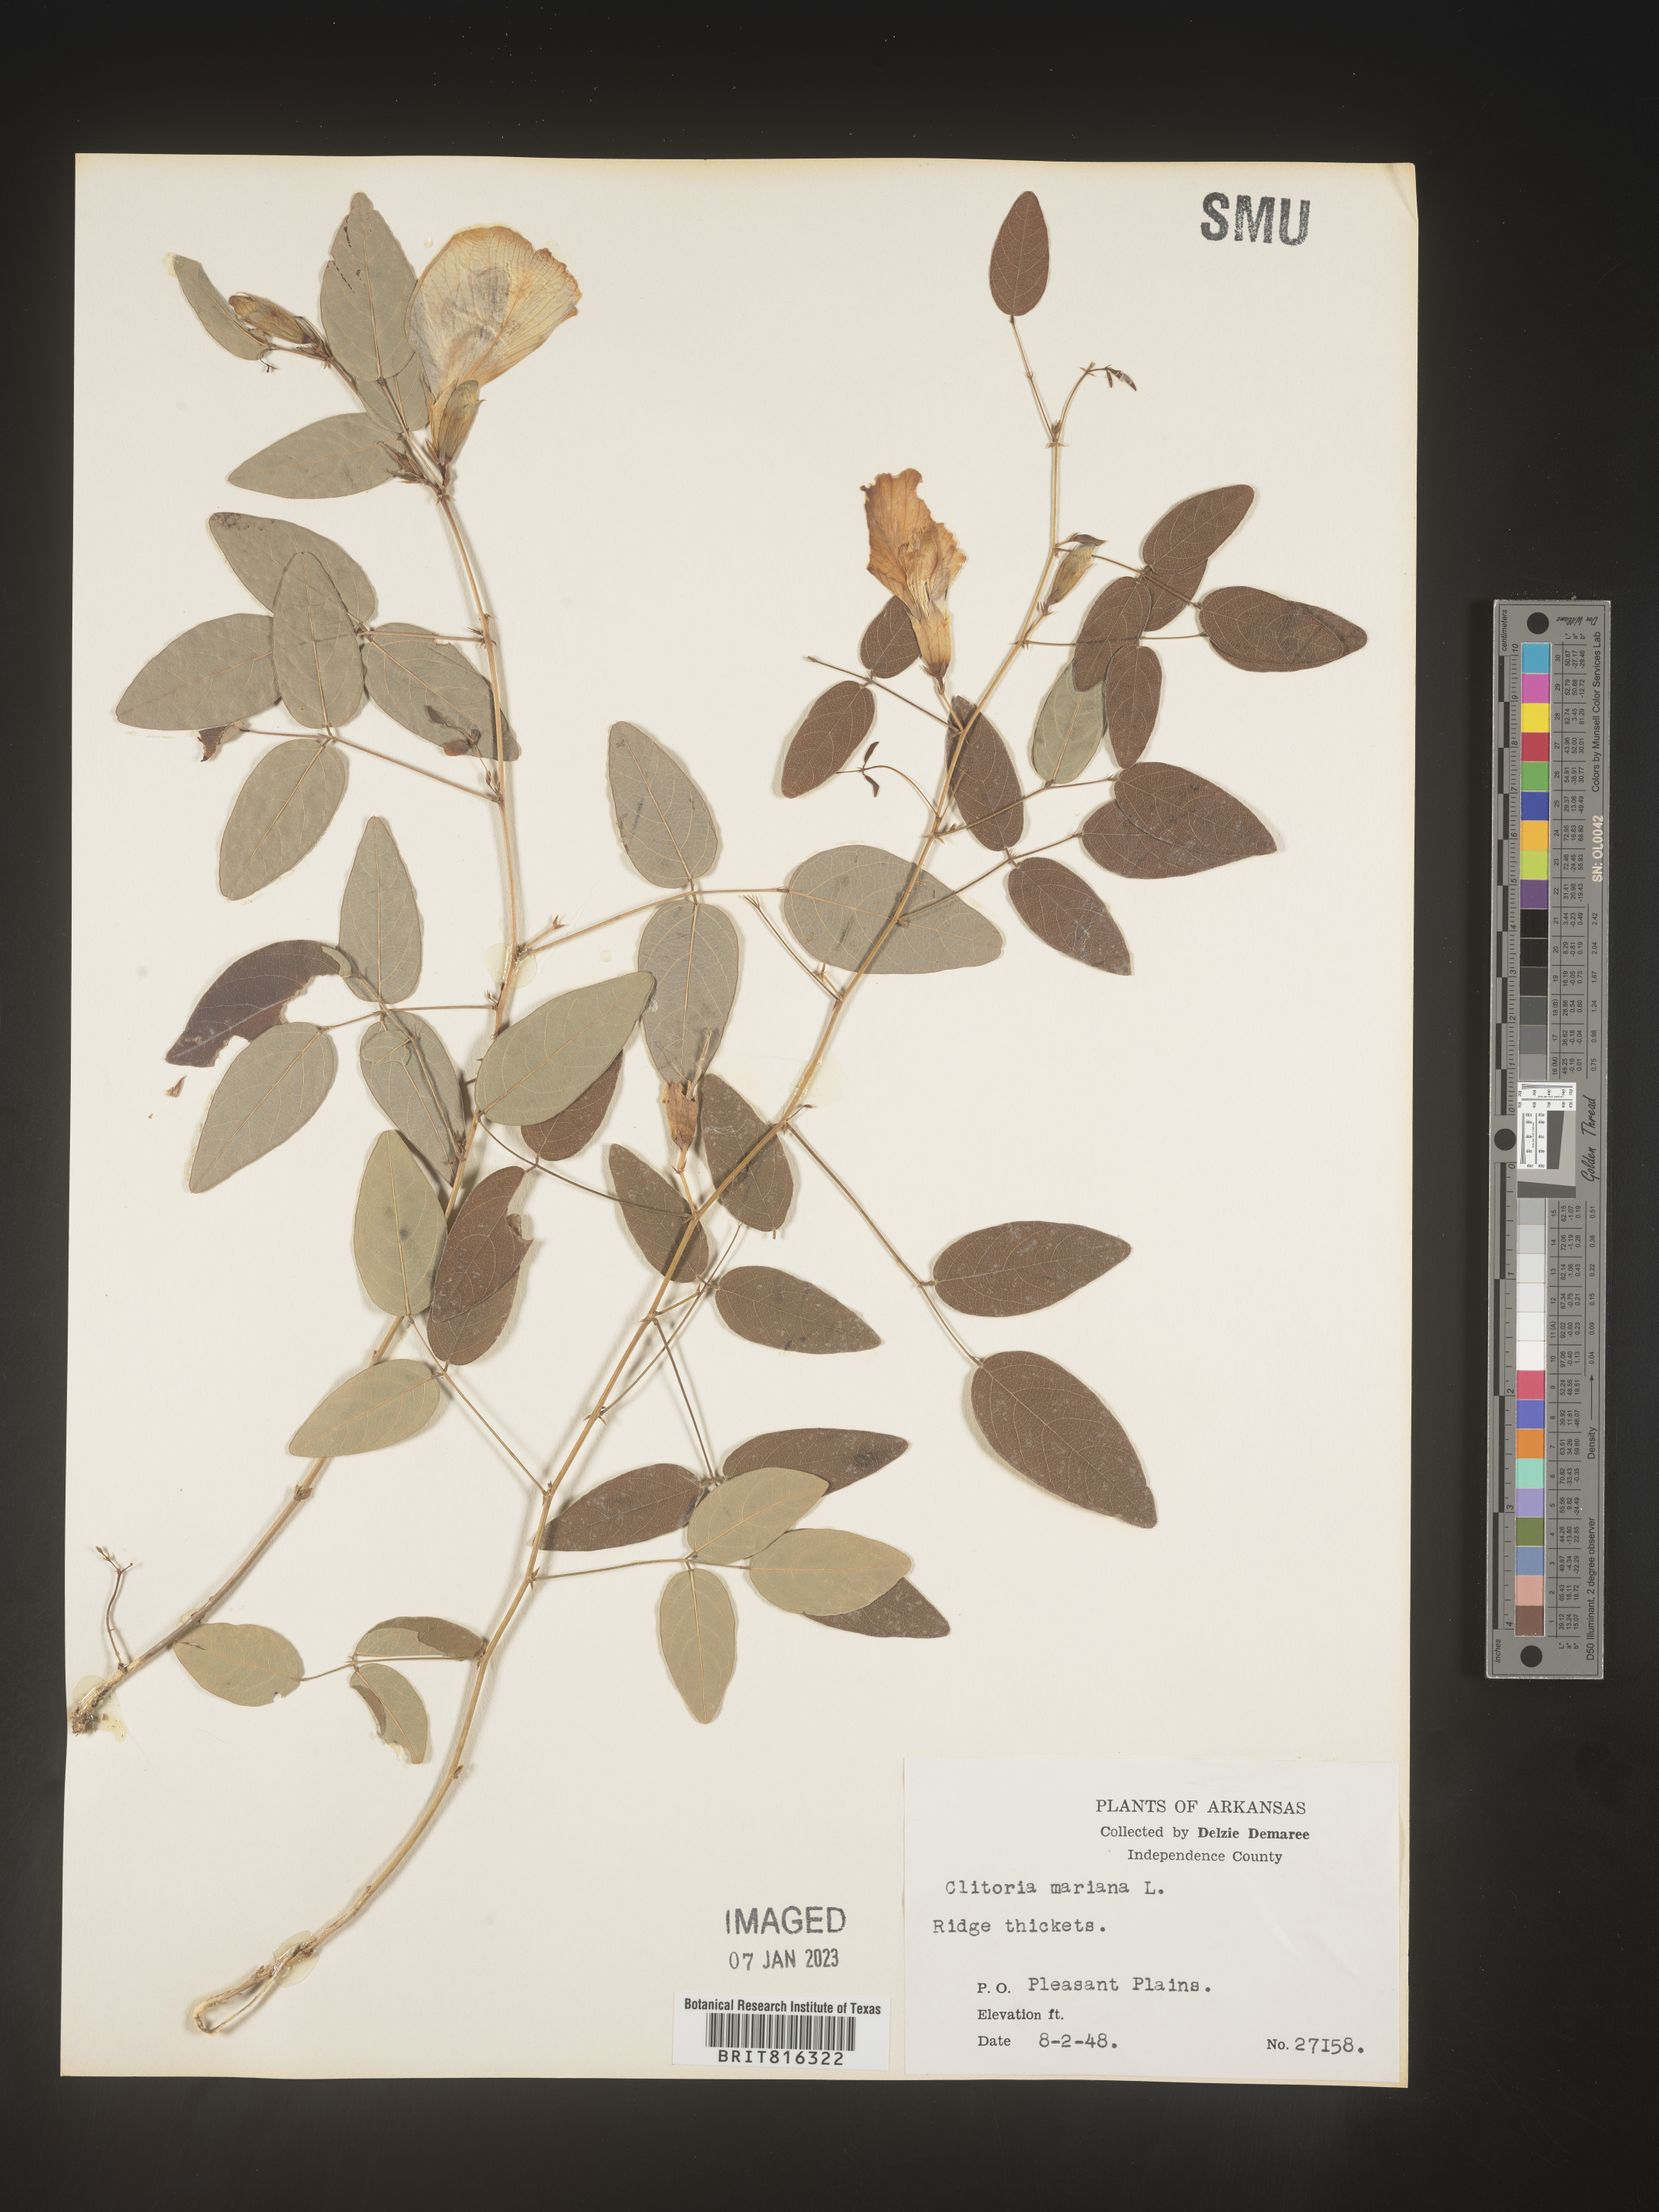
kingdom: Plantae
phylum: Tracheophyta
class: Magnoliopsida
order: Fabales
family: Fabaceae
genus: Clitoria
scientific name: Clitoria mariana
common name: Butterfly-pea
